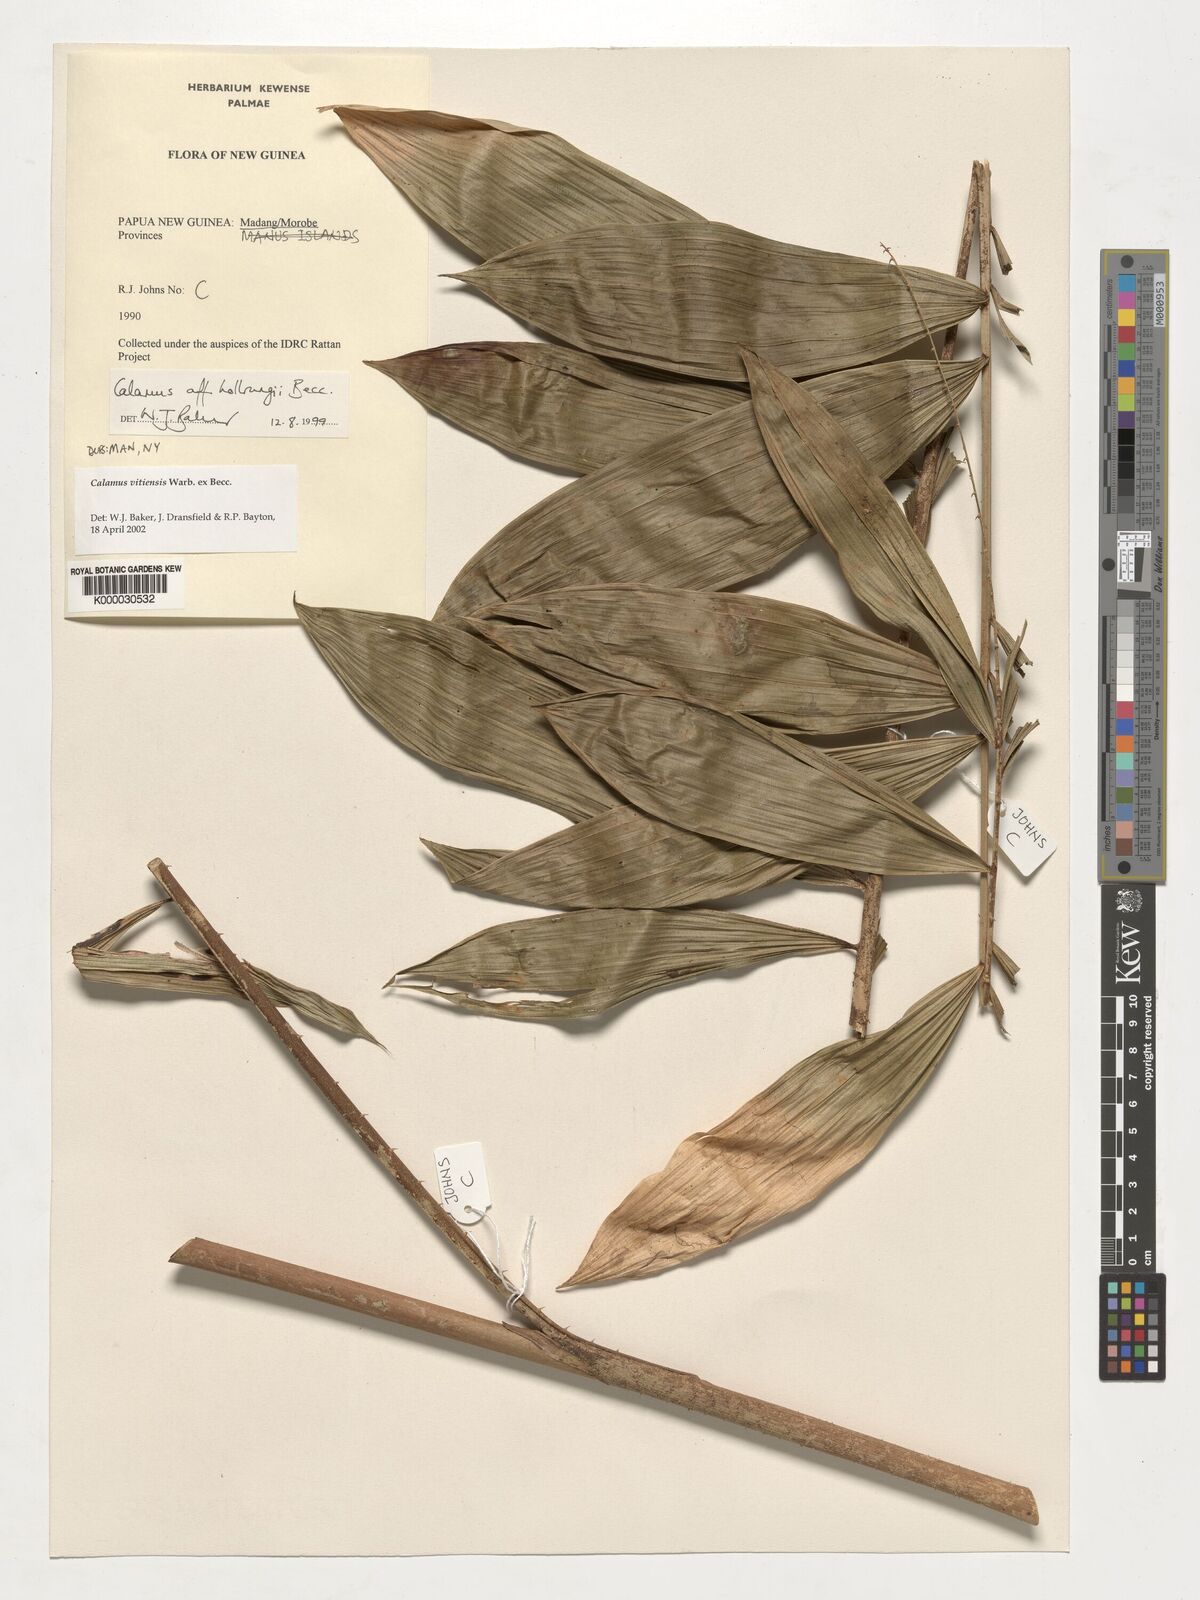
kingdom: Plantae
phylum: Tracheophyta
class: Liliopsida
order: Arecales
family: Arecaceae
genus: Calamus
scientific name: Calamus vitiensis
